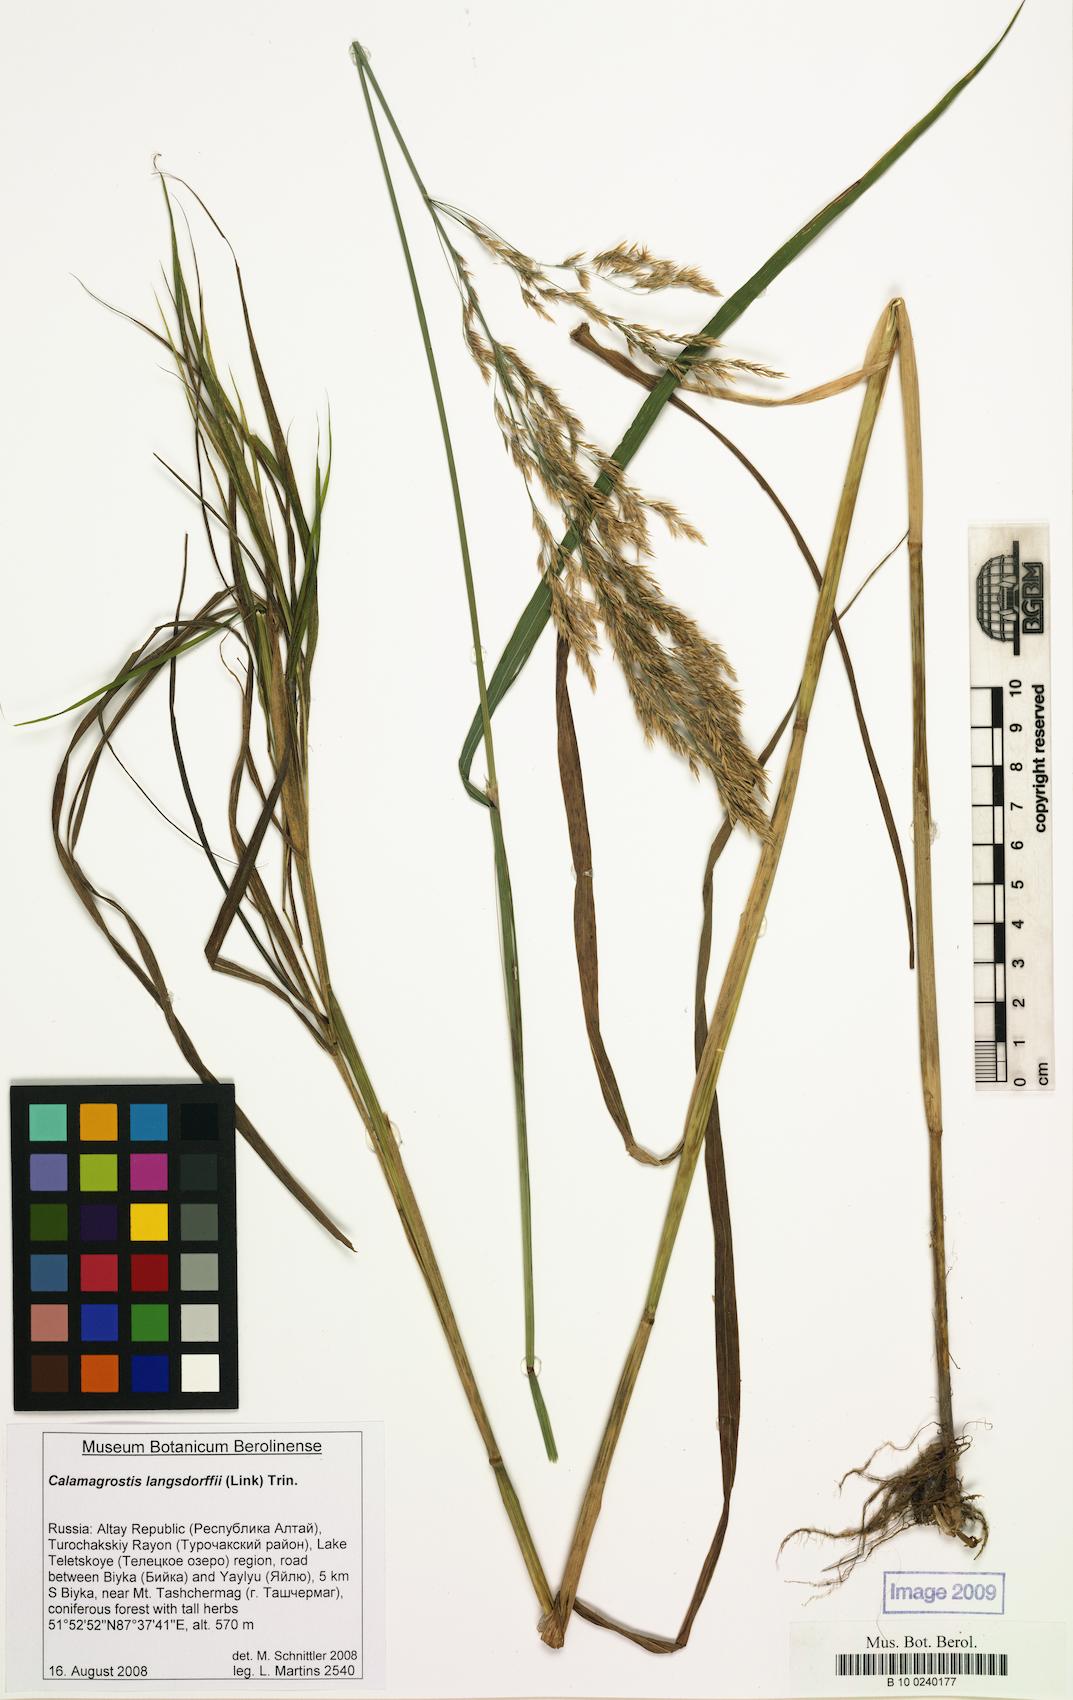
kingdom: Plantae
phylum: Tracheophyta
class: Liliopsida
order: Poales
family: Poaceae
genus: Calamagrostis
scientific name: Calamagrostis purpurea
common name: Scandinavian small-reed
